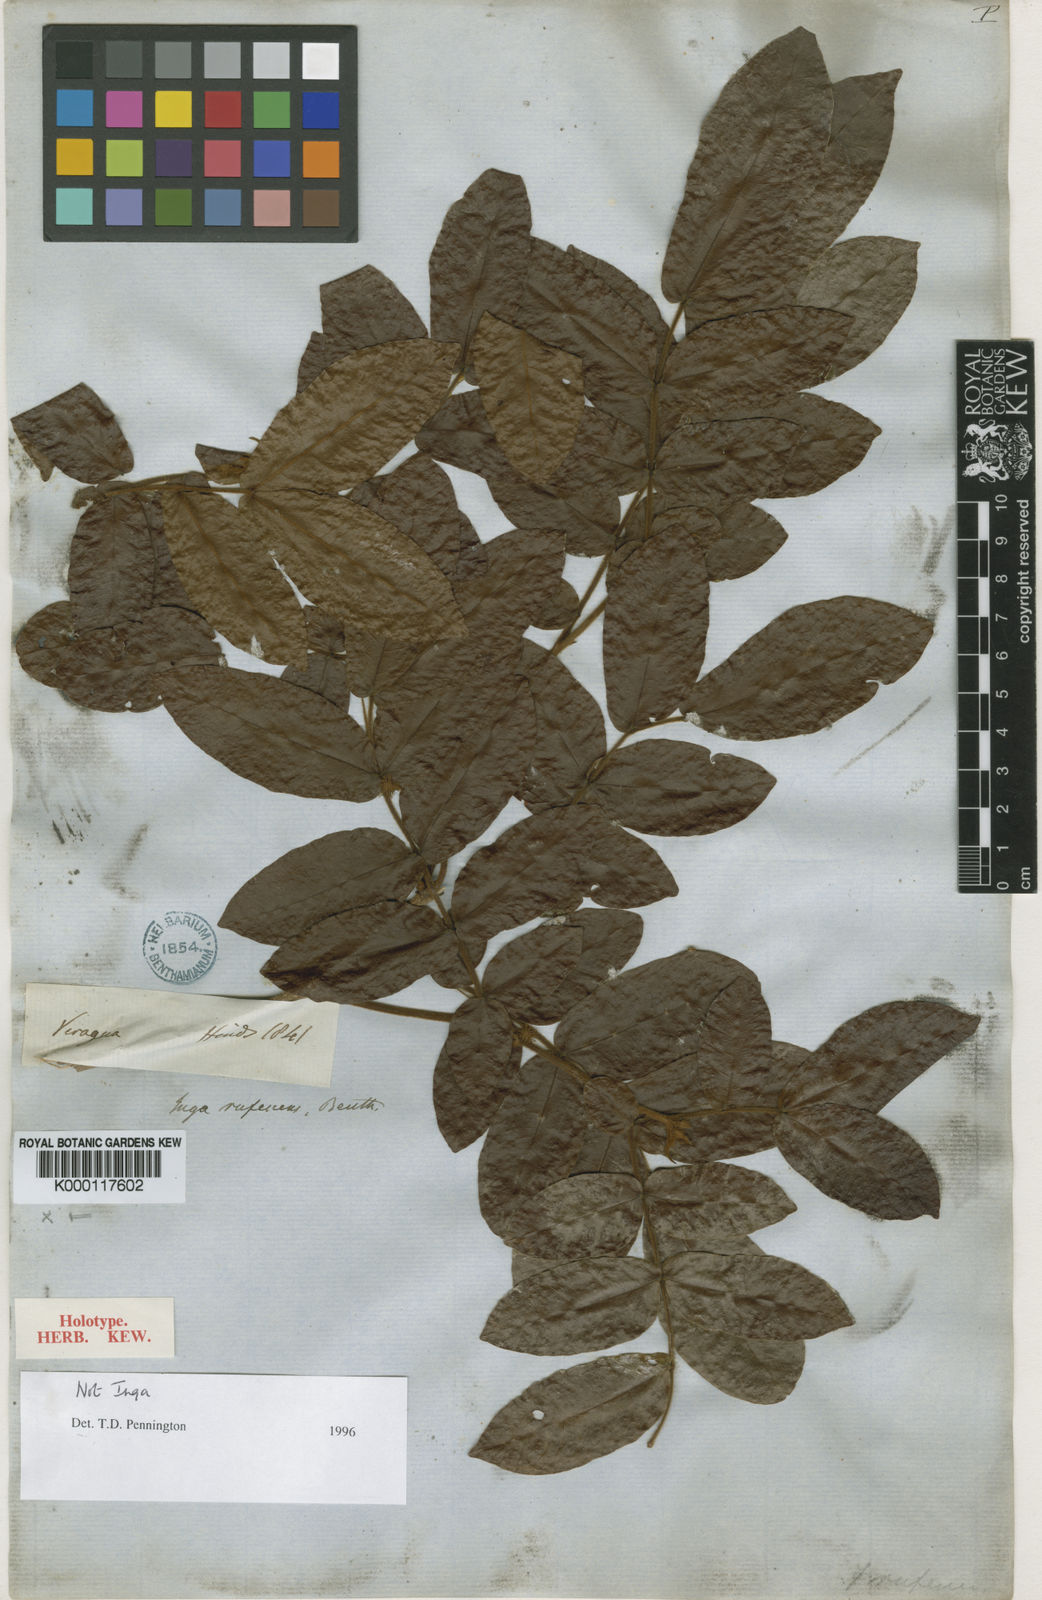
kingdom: Plantae
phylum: Tracheophyta
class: Magnoliopsida
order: Fabales
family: Fabaceae
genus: Cojoba
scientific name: Cojoba rufescens
